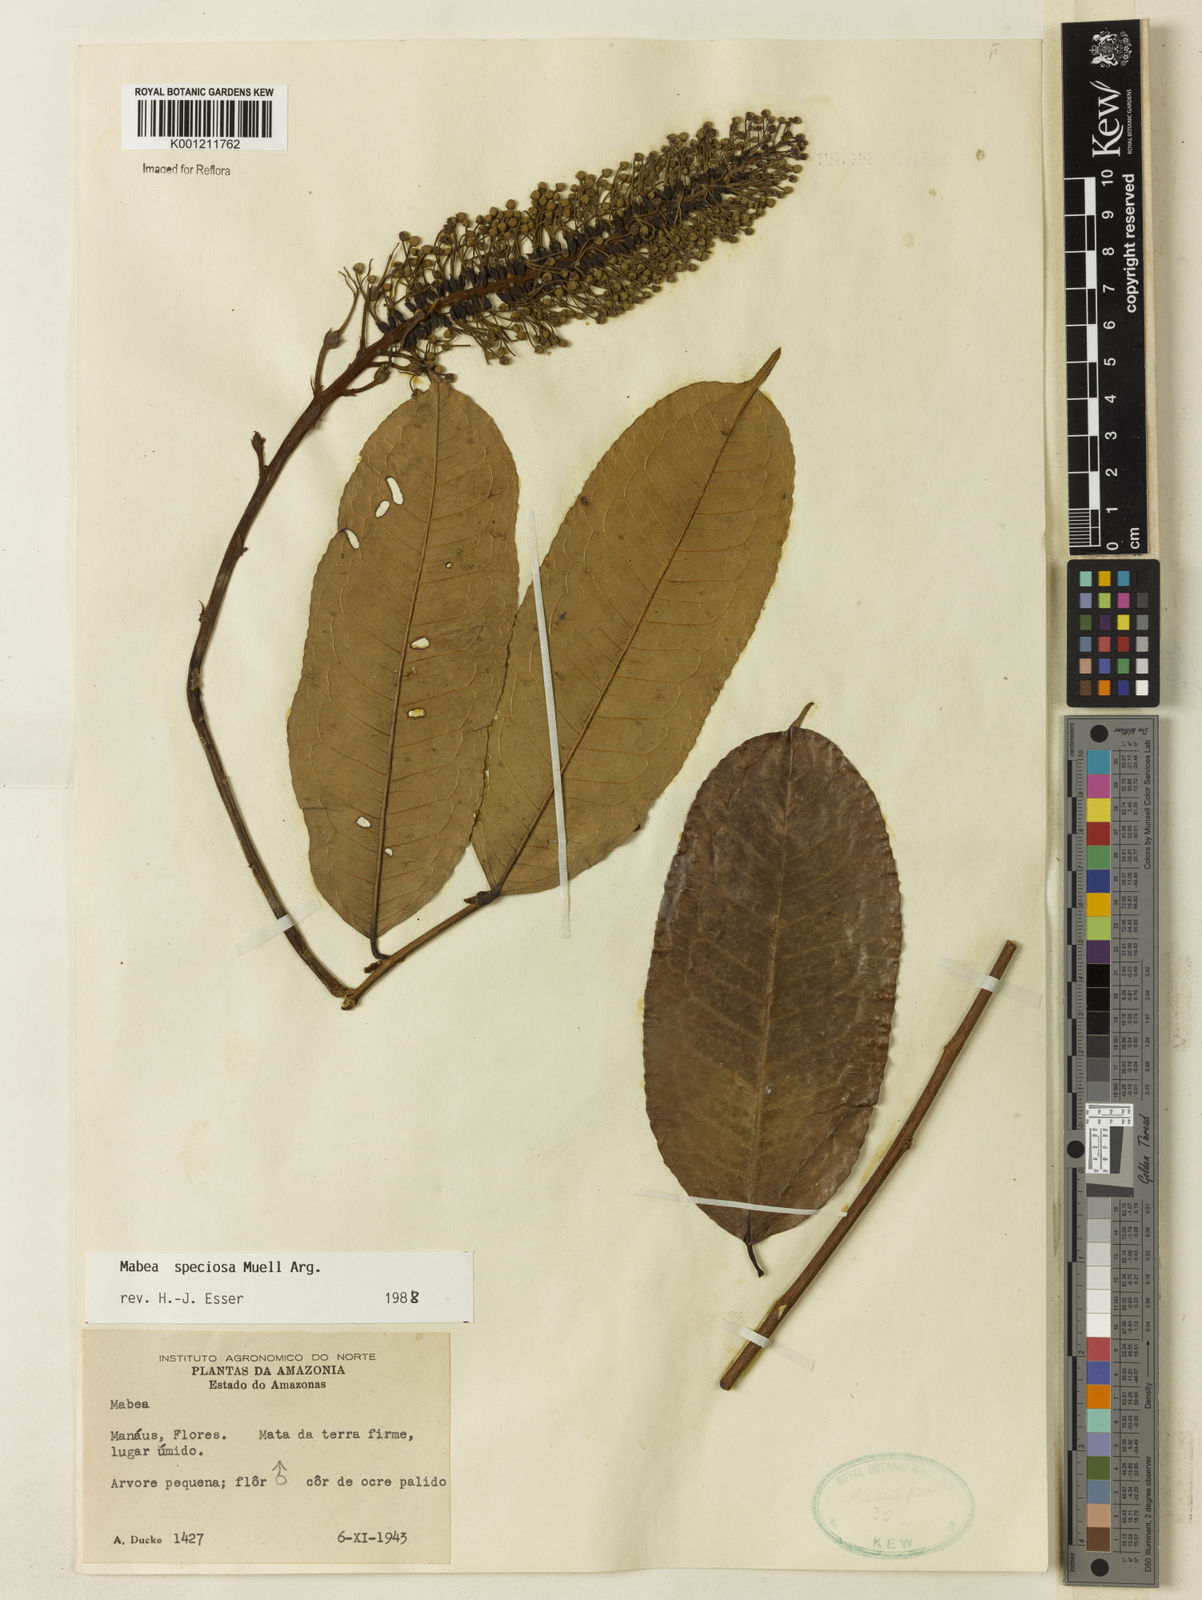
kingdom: Plantae
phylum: Tracheophyta
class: Magnoliopsida
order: Malpighiales
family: Euphorbiaceae
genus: Mabea
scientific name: Mabea
